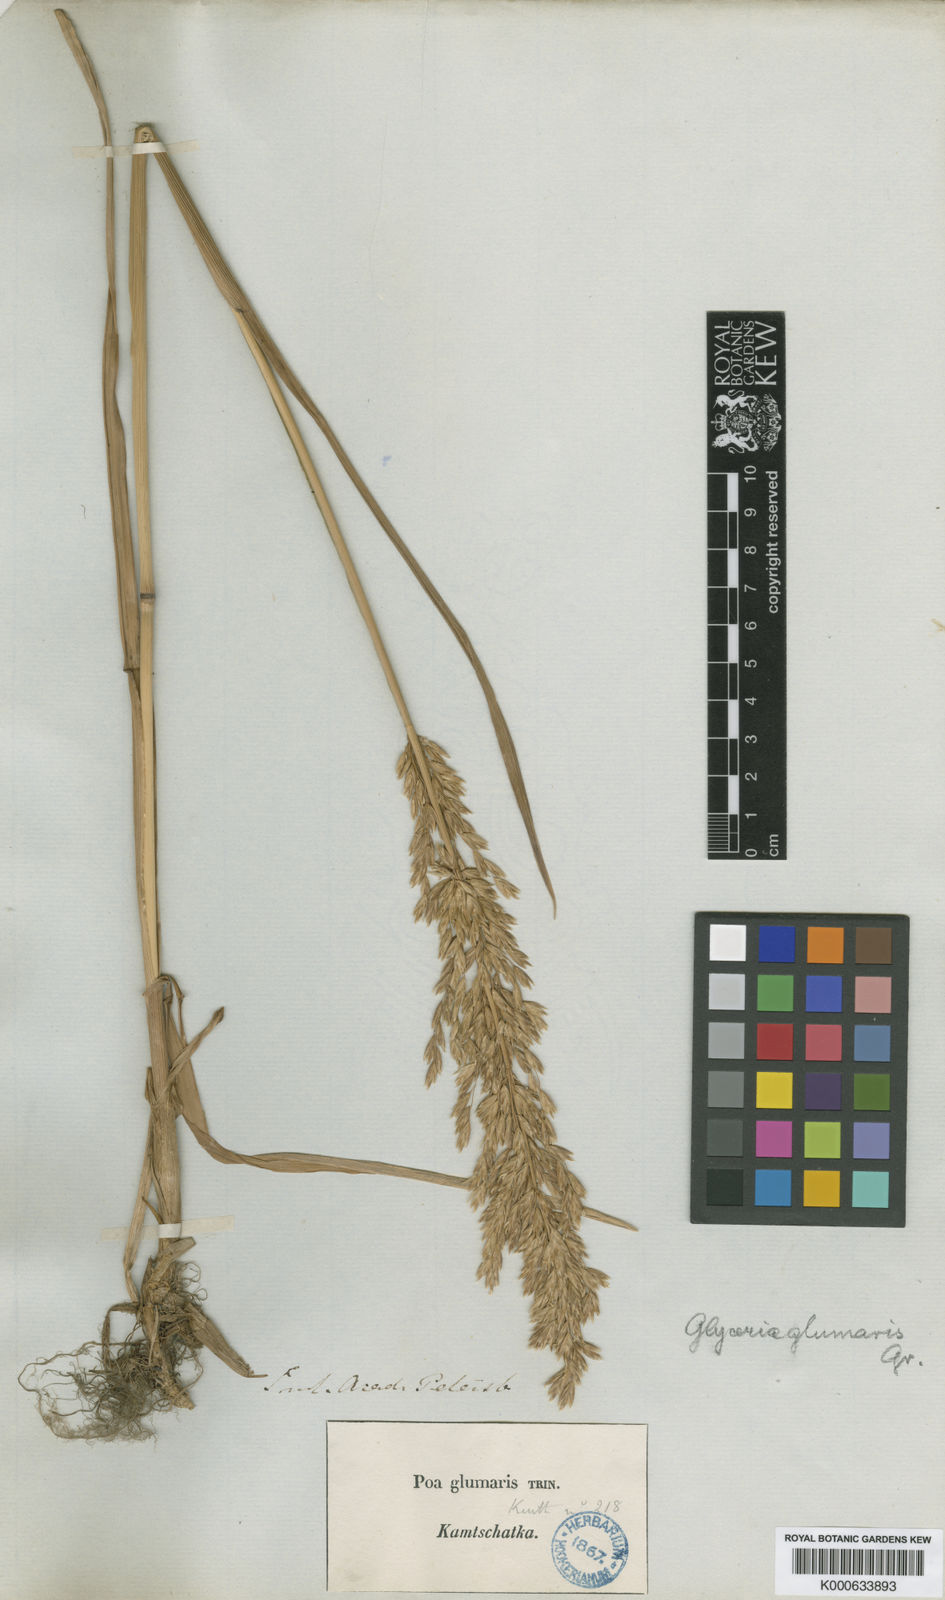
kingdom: Plantae
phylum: Tracheophyta
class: Liliopsida
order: Poales
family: Poaceae
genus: Arctopoa
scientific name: Arctopoa eminens
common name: Eminent bluegrass
